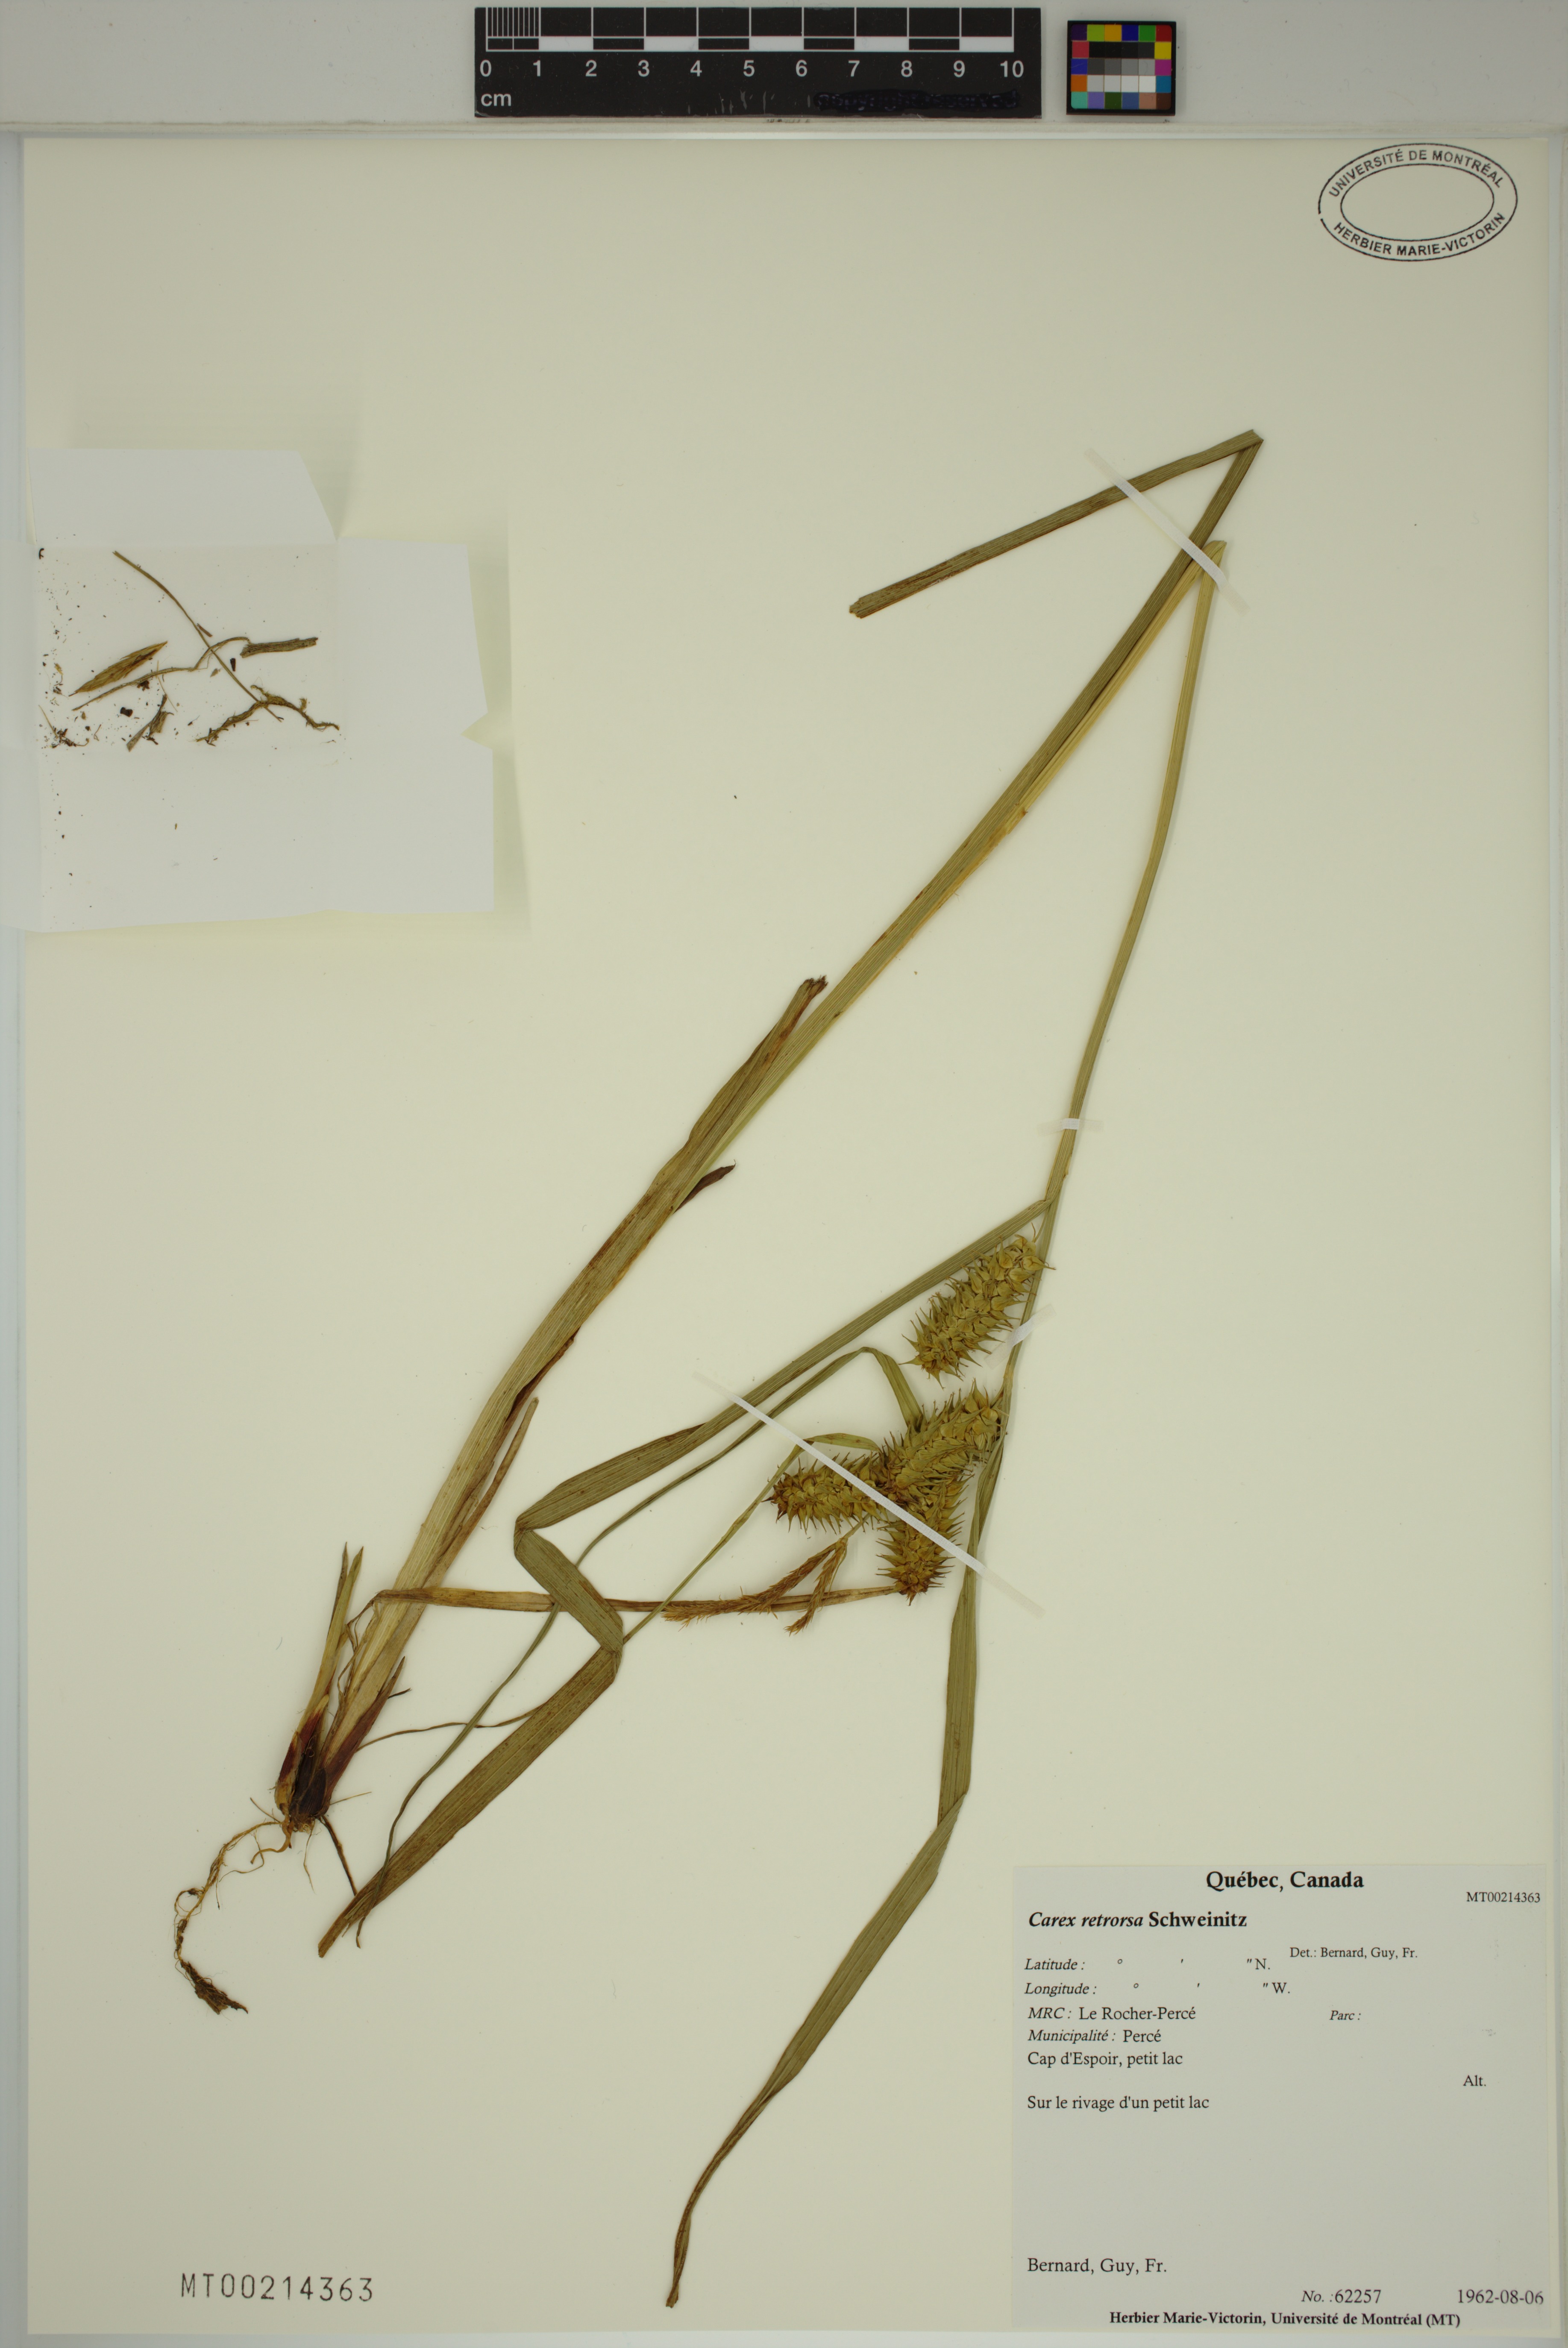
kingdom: Plantae
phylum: Tracheophyta
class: Liliopsida
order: Poales
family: Cyperaceae
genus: Carex
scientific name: Carex retrorsa
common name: Knot-sheath sedge
